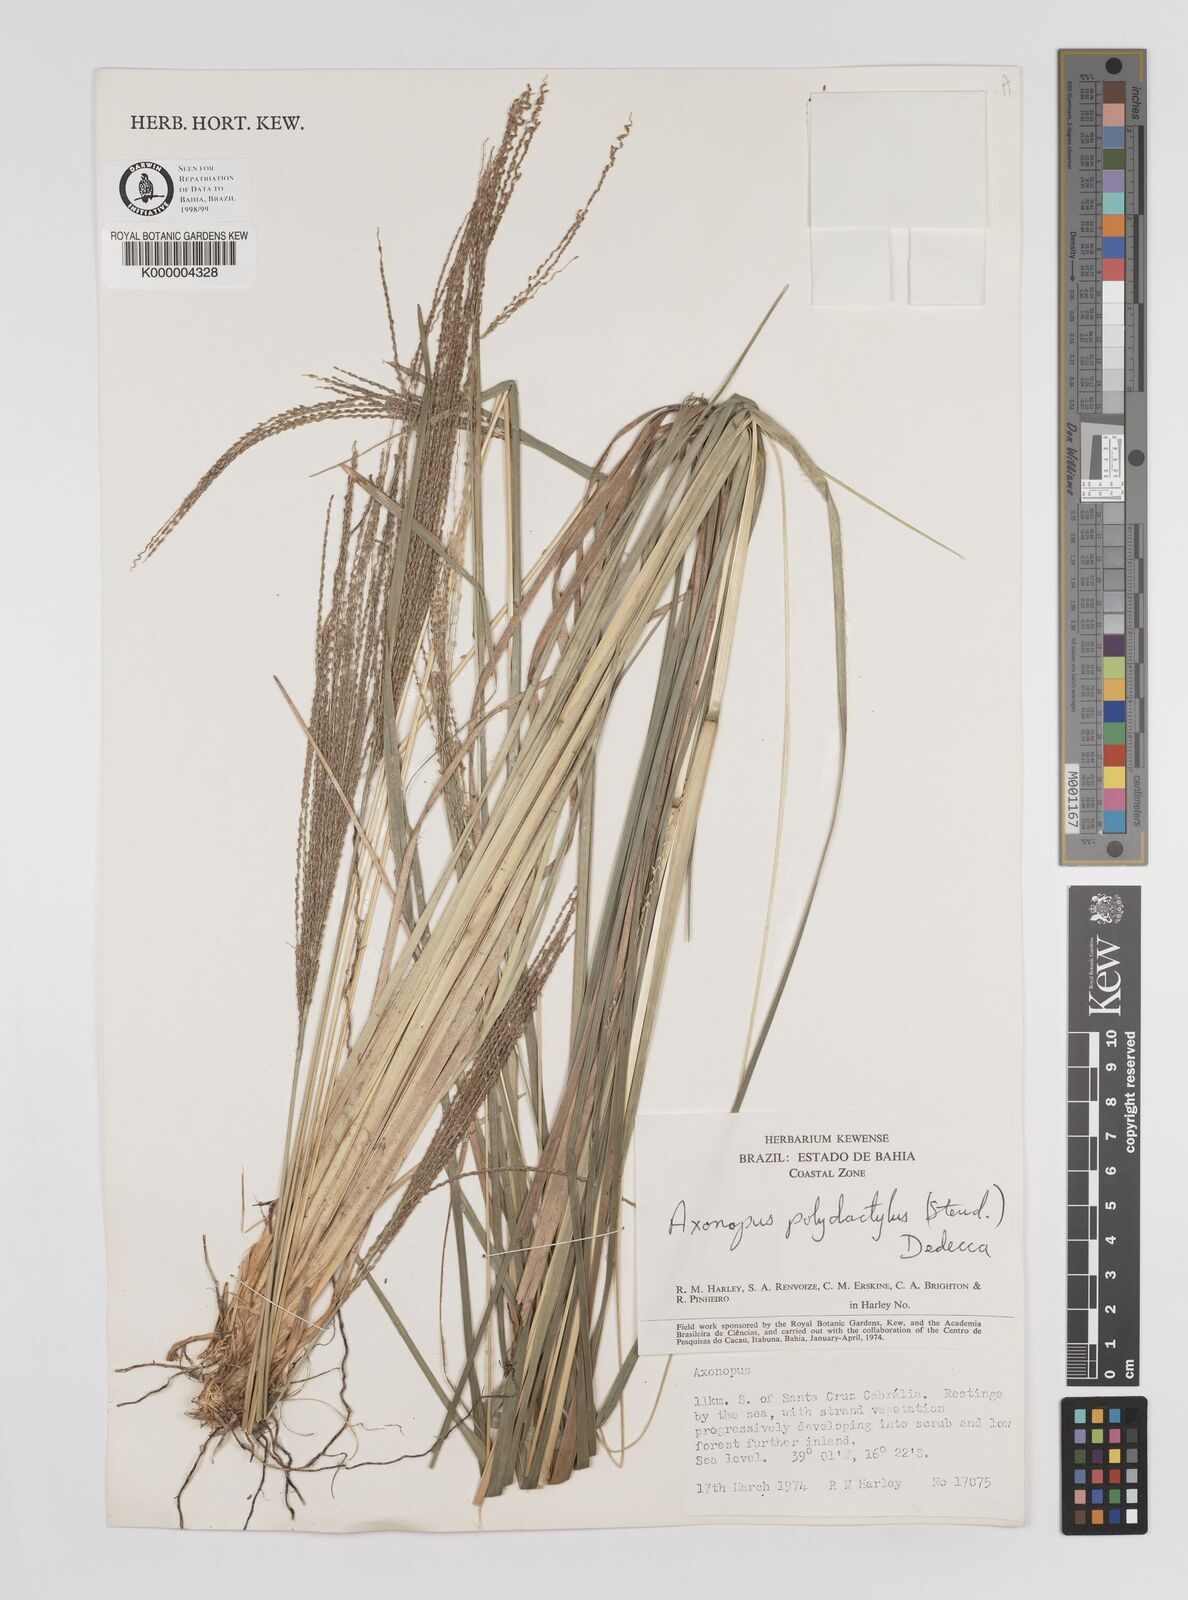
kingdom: Plantae
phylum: Tracheophyta
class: Liliopsida
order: Poales
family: Poaceae
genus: Axonopus
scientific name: Axonopus polydactylus
